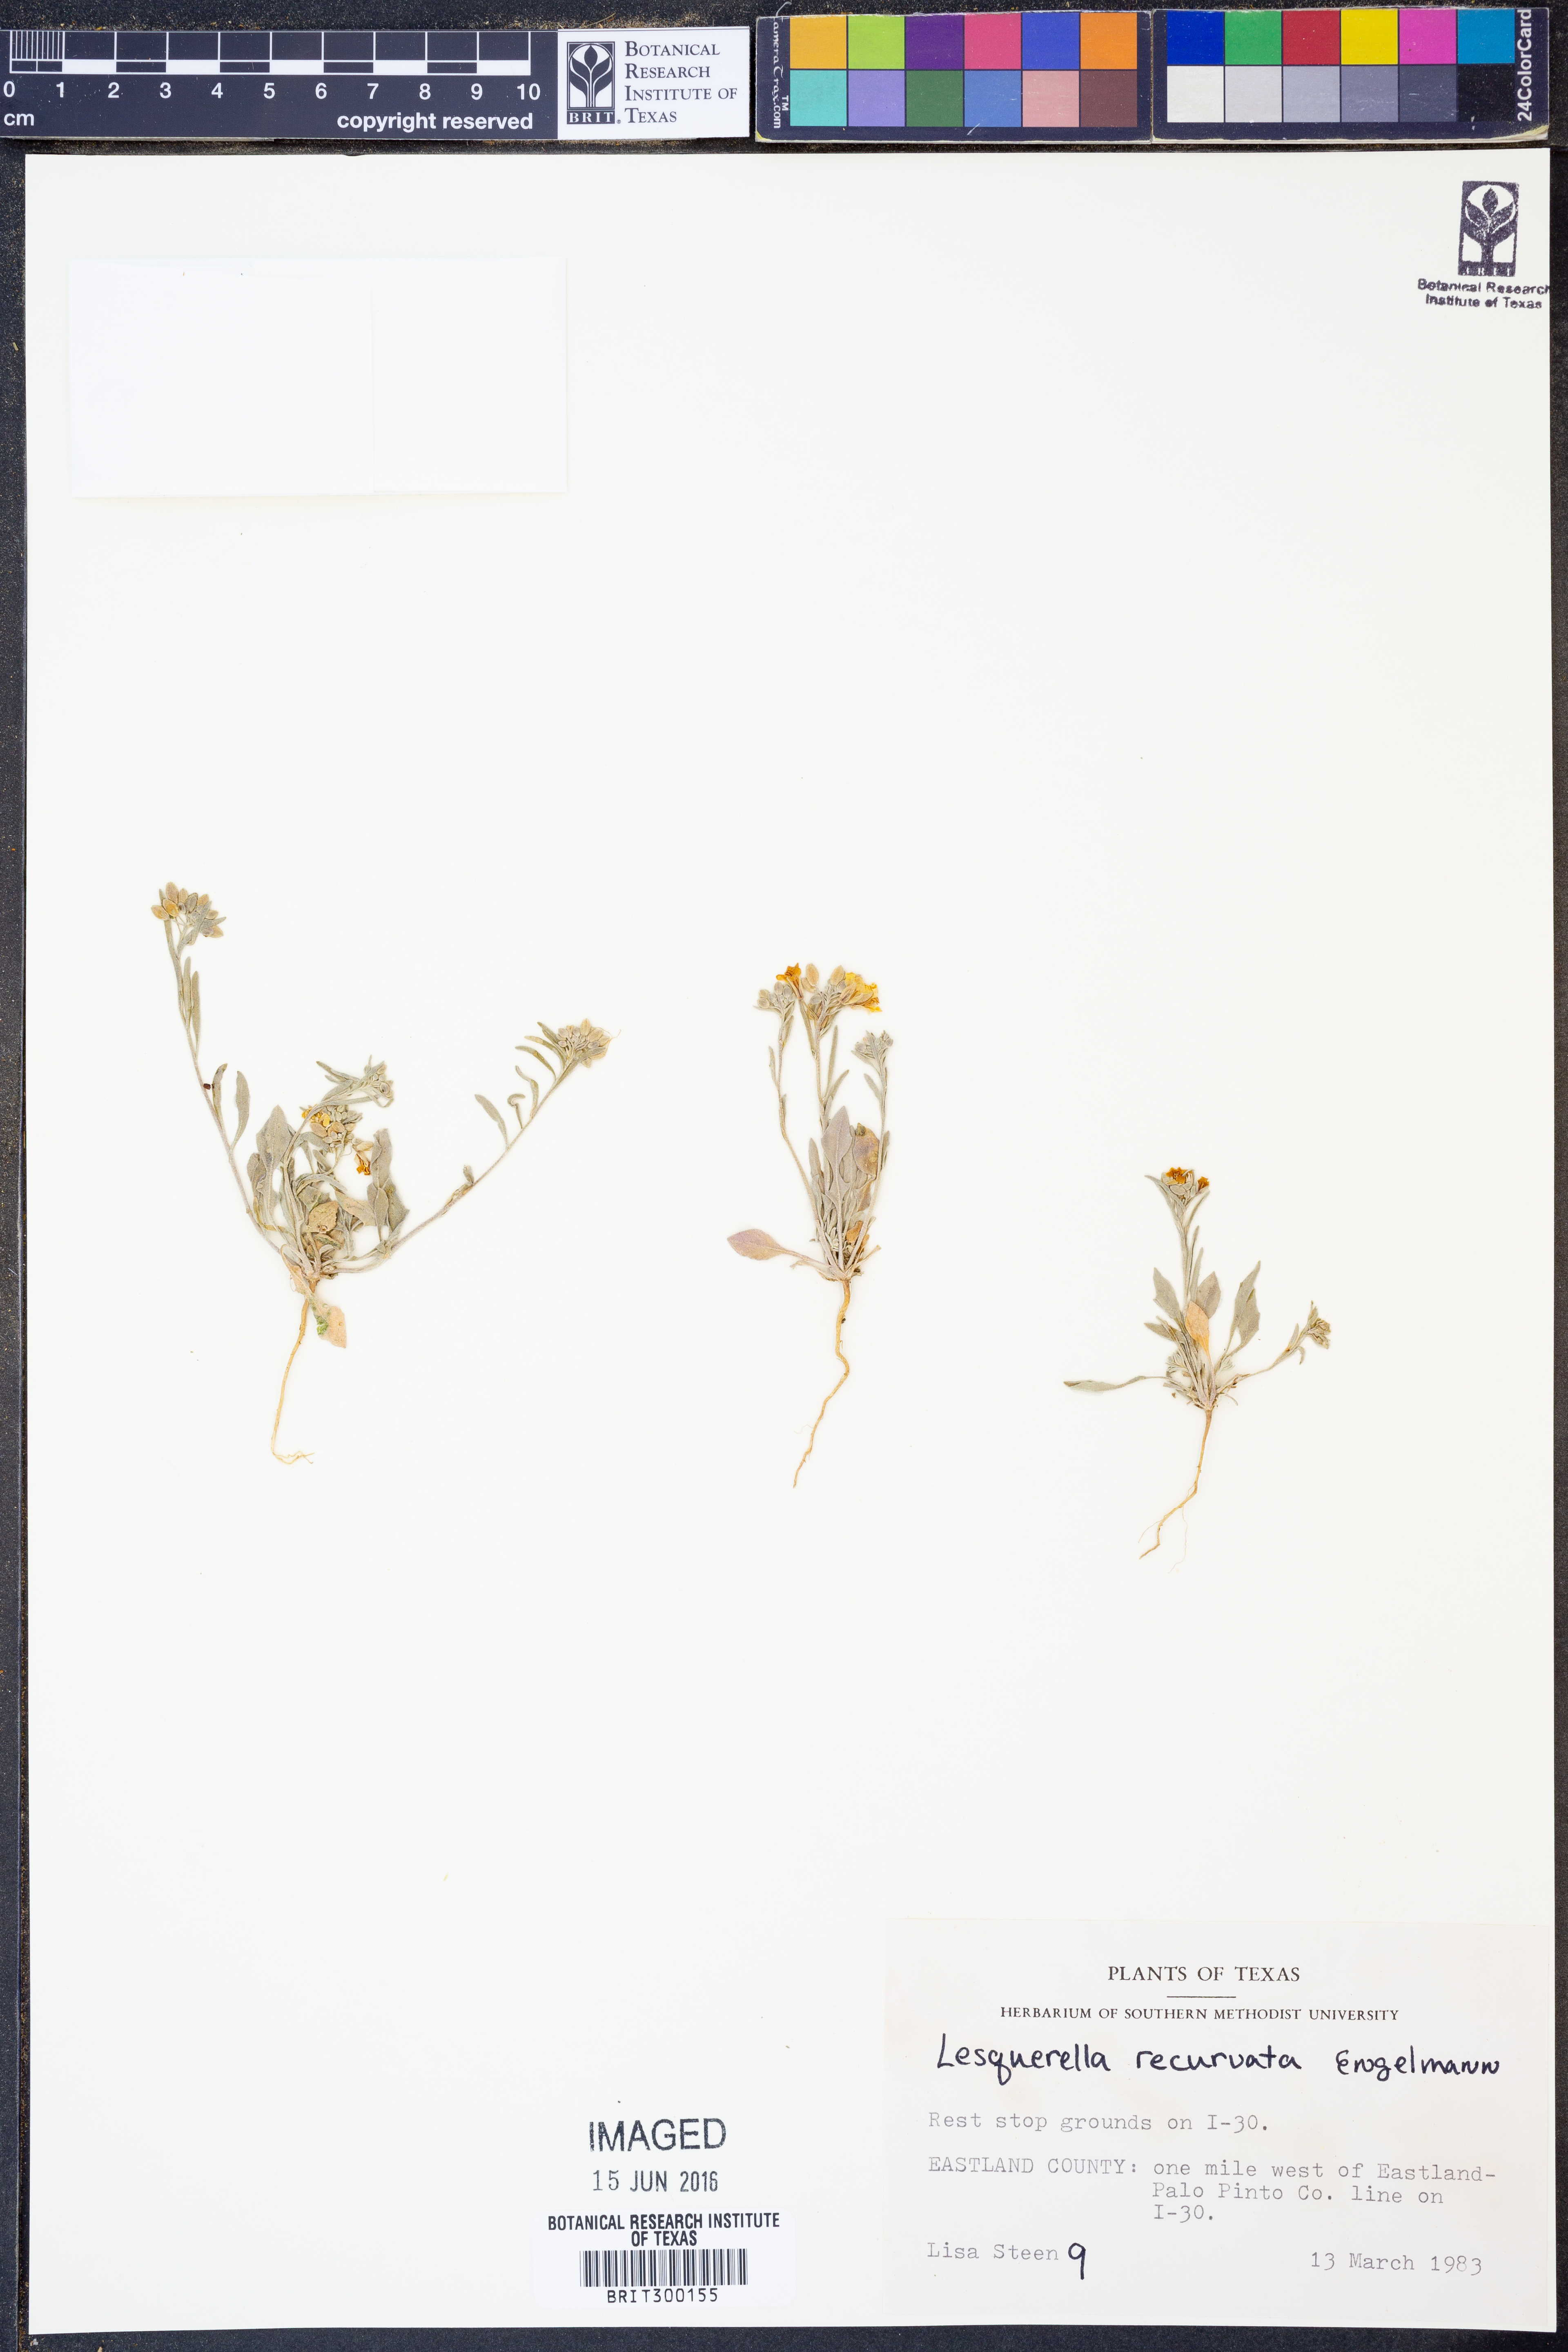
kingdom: Plantae
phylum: Tracheophyta
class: Magnoliopsida
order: Brassicales
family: Brassicaceae
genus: Physaria
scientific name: Physaria recurvata
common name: Gaslight bladderpod
